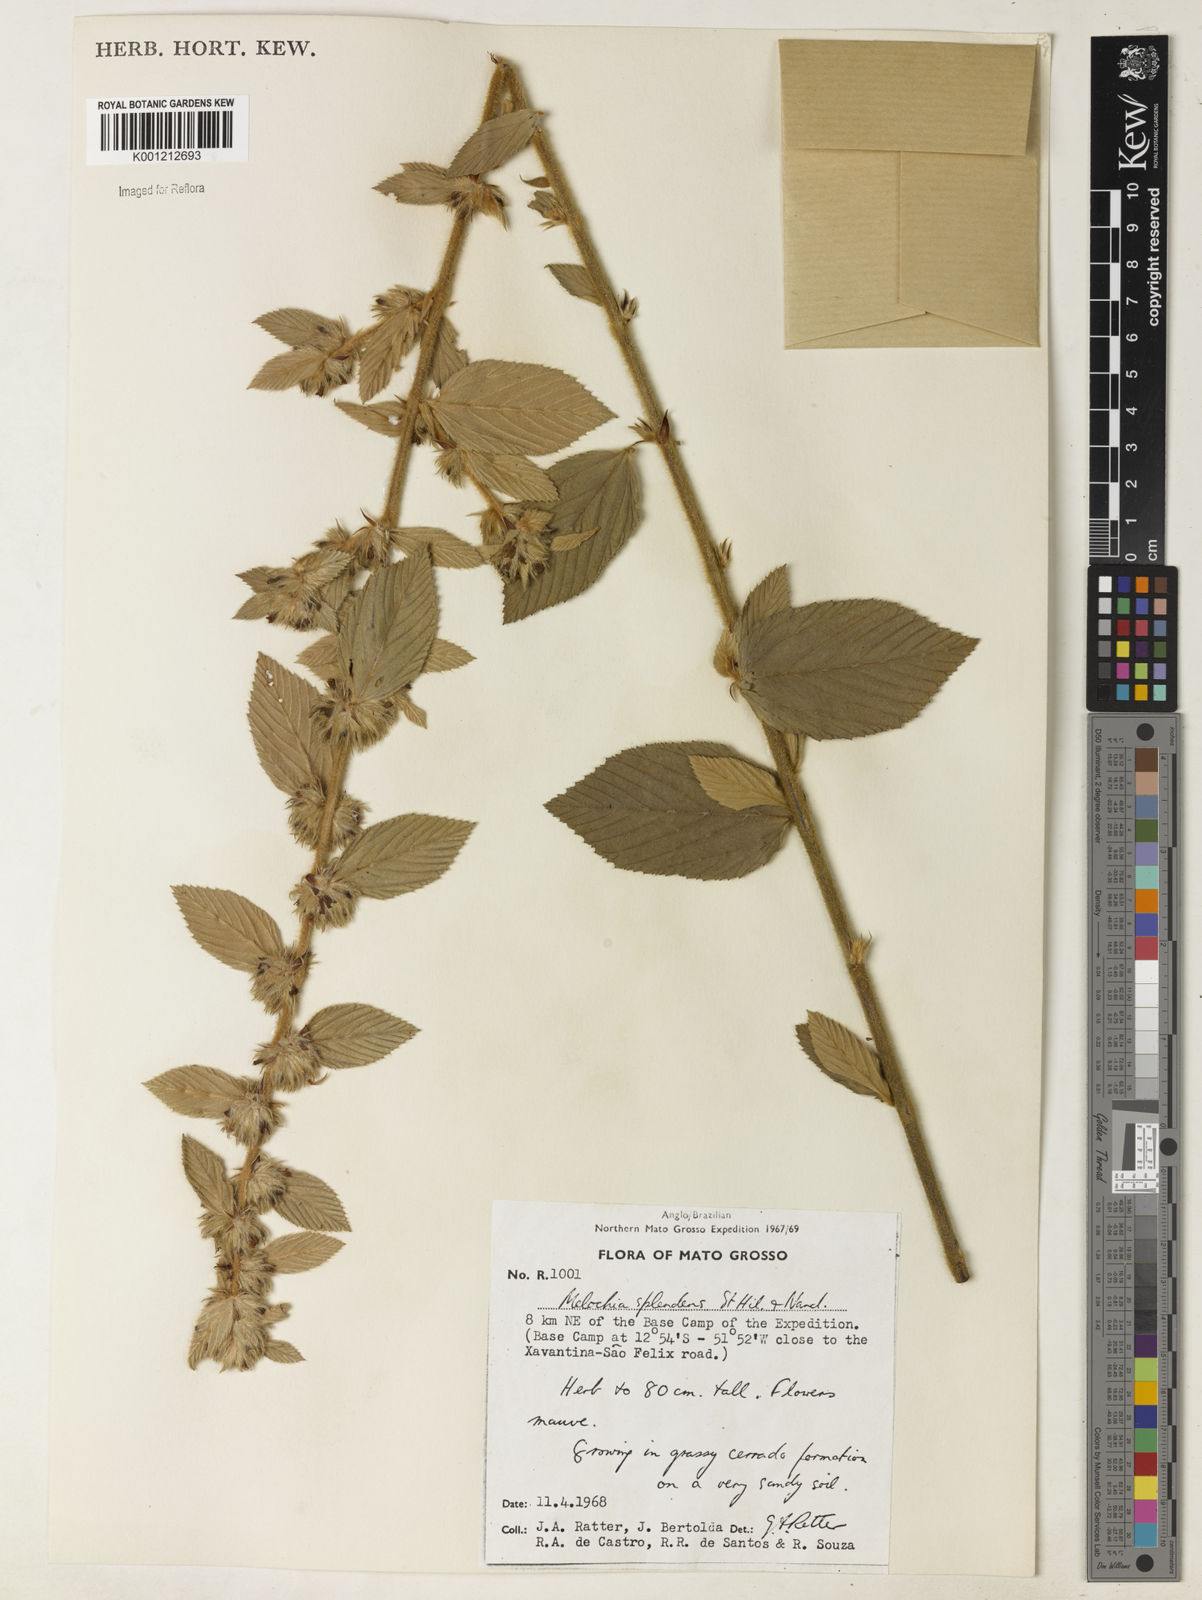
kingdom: Plantae
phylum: Tracheophyta
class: Magnoliopsida
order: Malvales
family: Malvaceae
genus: Melochia
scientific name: Melochia splendens
